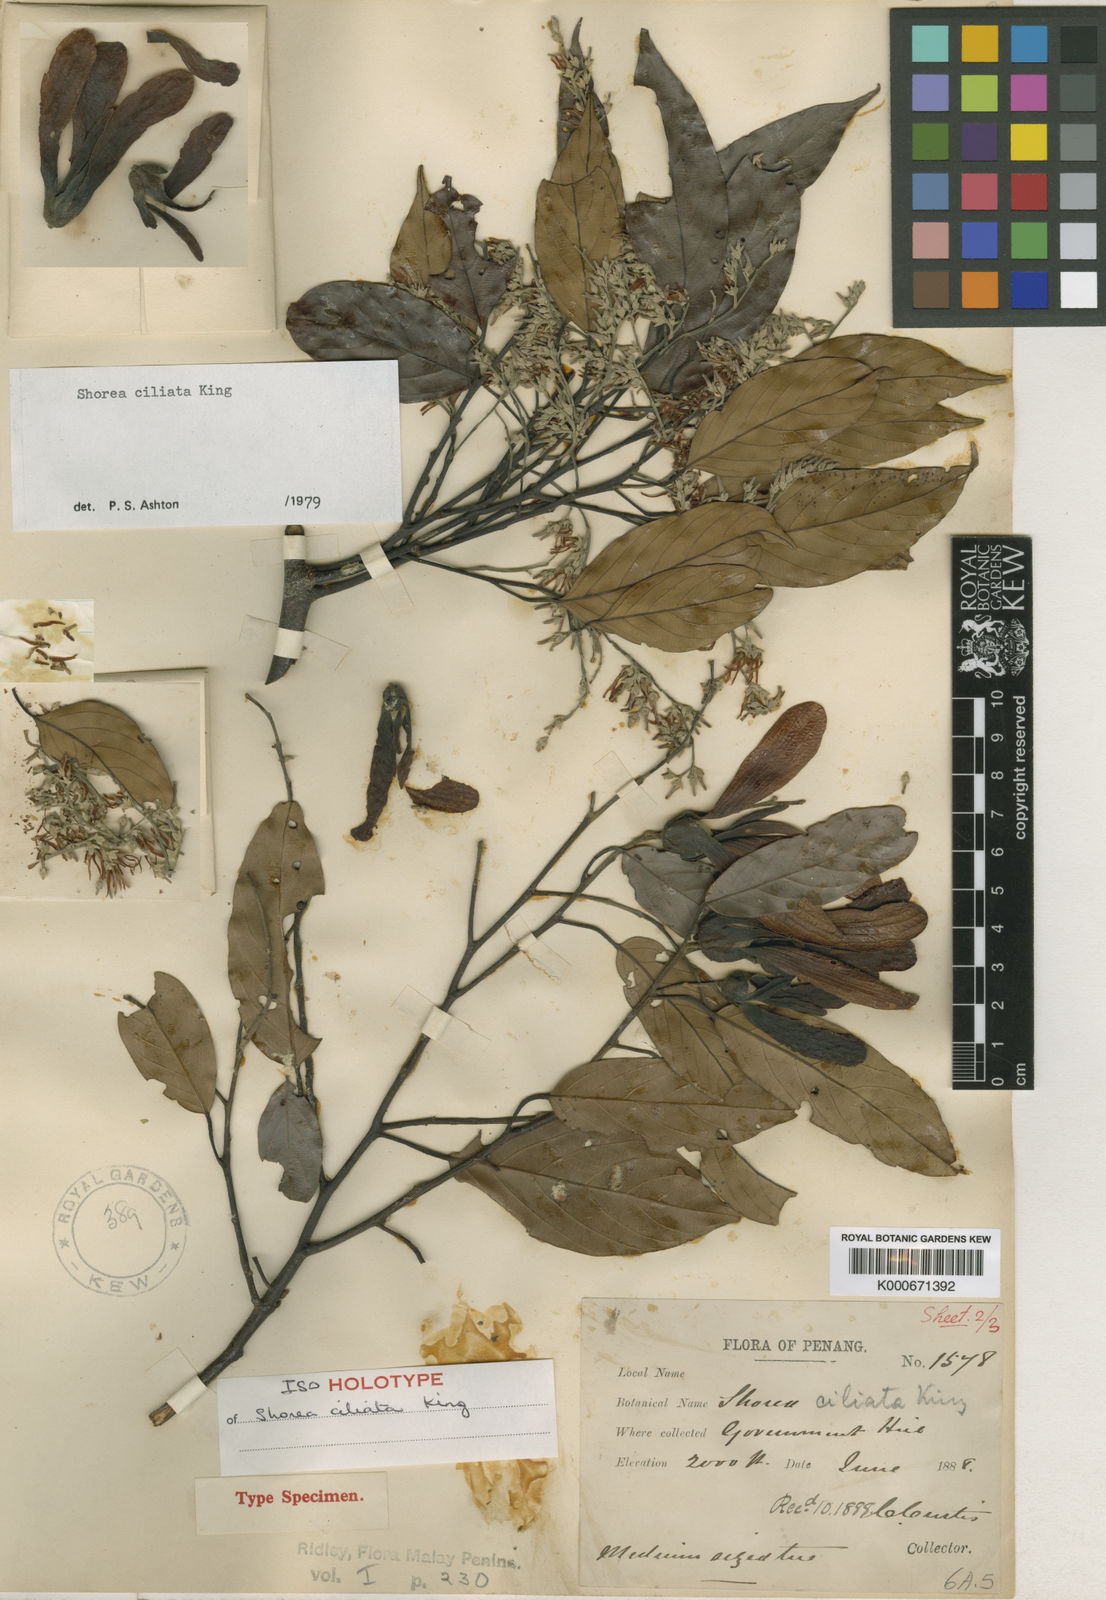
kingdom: Plantae
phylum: Tracheophyta
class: Magnoliopsida
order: Malvales
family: Dipterocarpaceae
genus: Shorea
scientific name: Shorea ciliata
